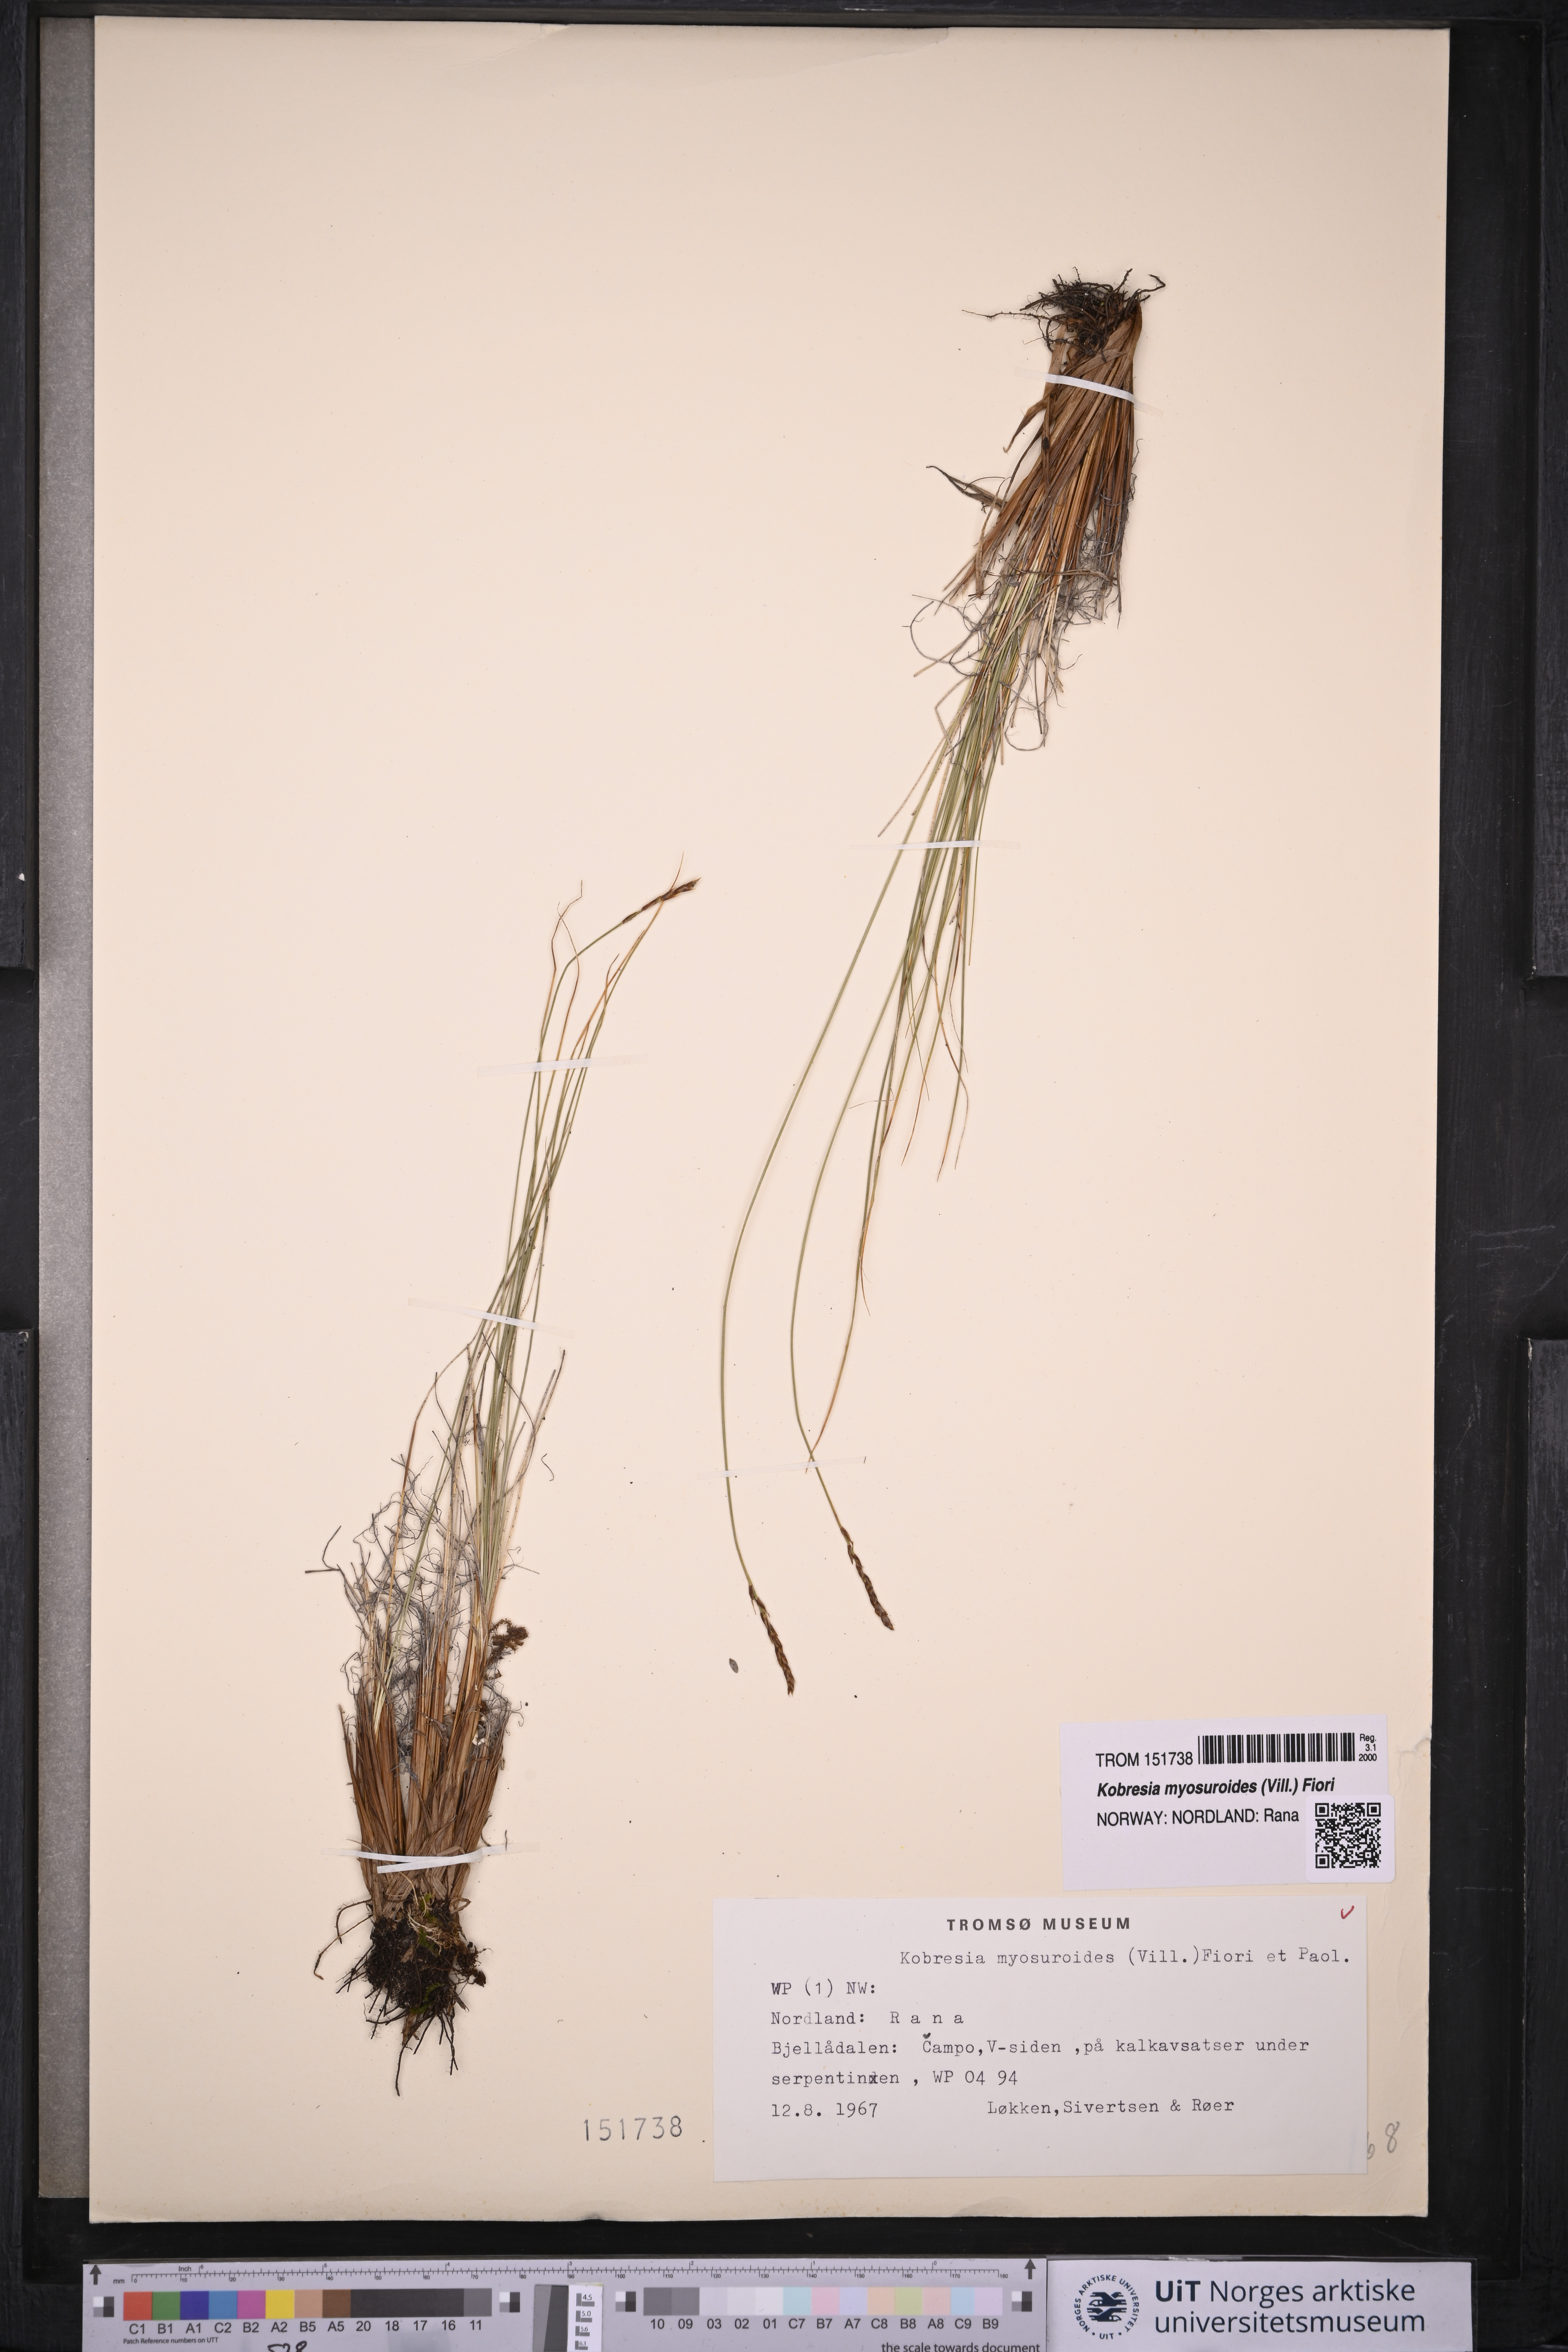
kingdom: Plantae
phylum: Tracheophyta
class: Liliopsida
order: Poales
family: Cyperaceae
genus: Carex
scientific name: Carex myosuroides
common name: Bellard's bog sedge
